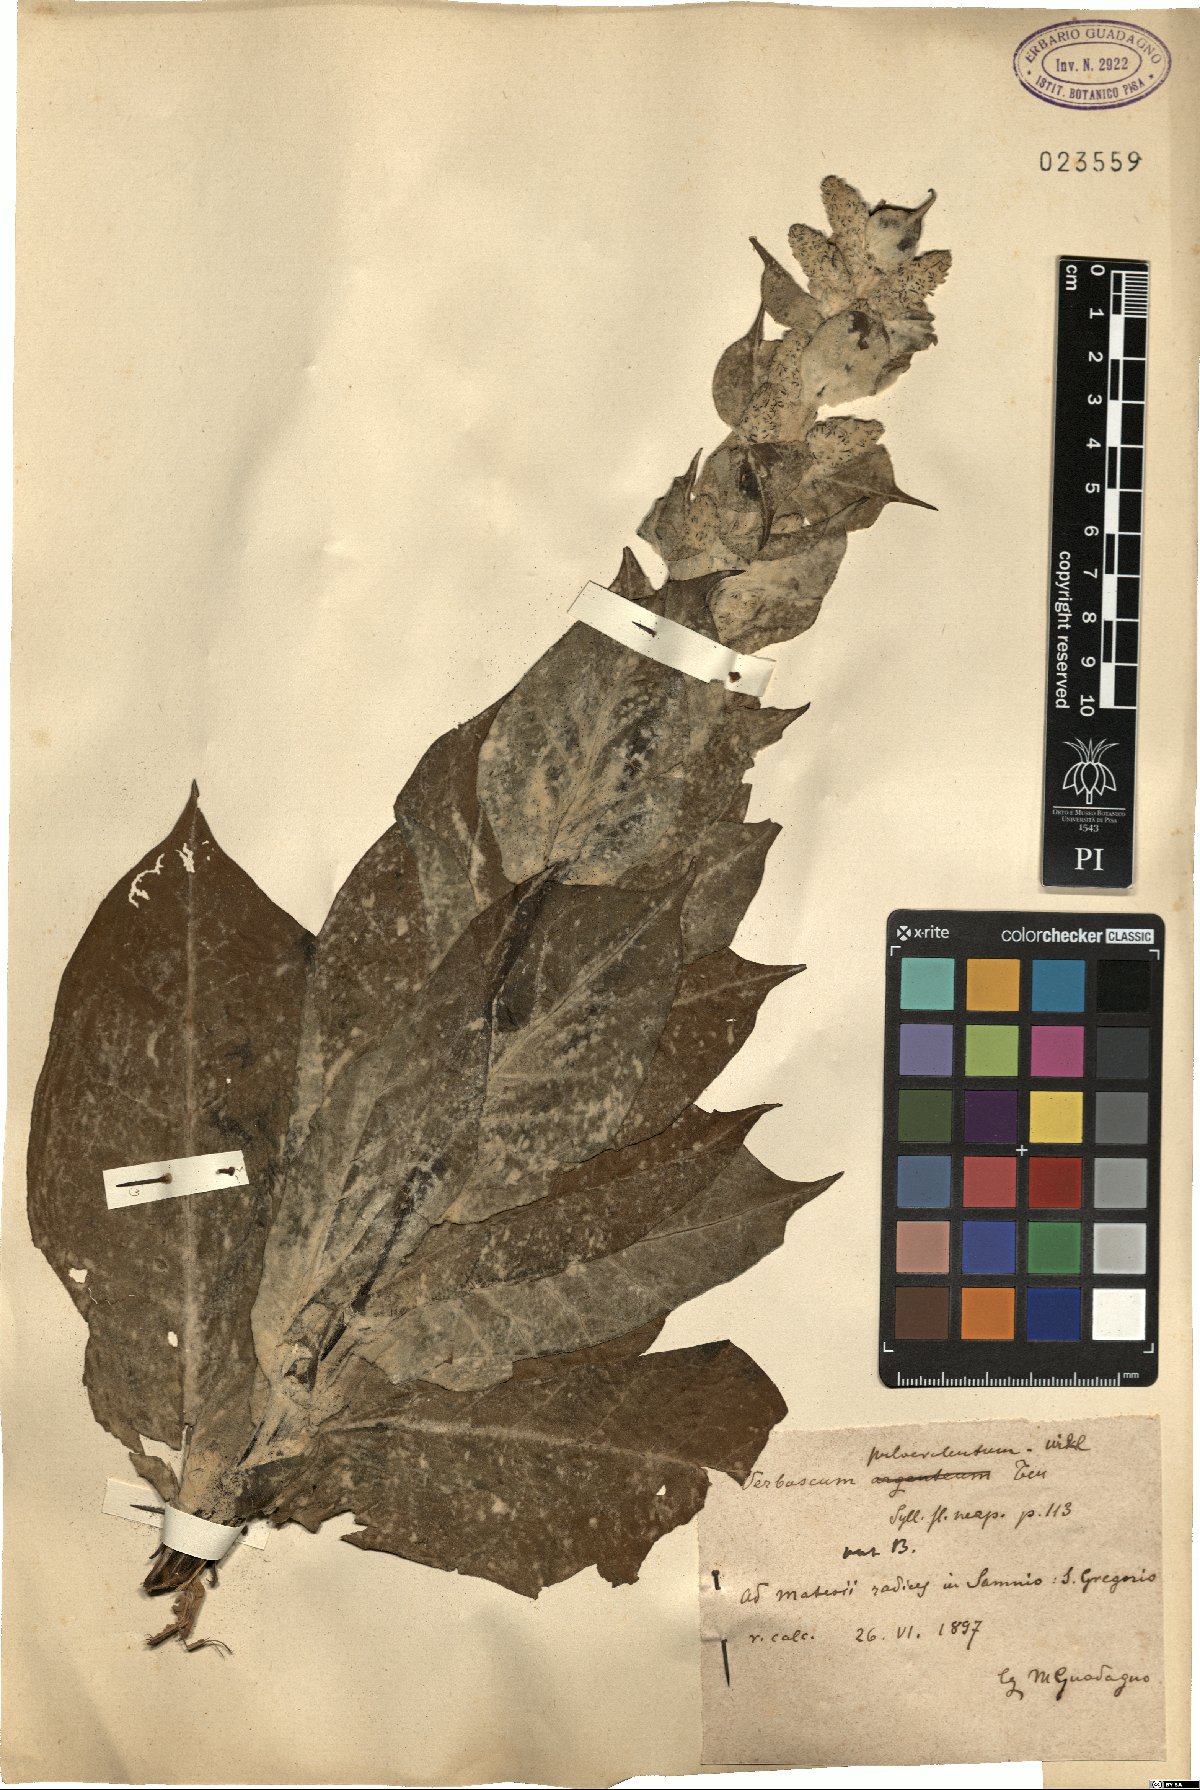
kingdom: Plantae
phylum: Tracheophyta
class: Magnoliopsida
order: Lamiales
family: Scrophulariaceae
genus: Verbascum
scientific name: Verbascum pulverulentum
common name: Broad-leaf mullein
